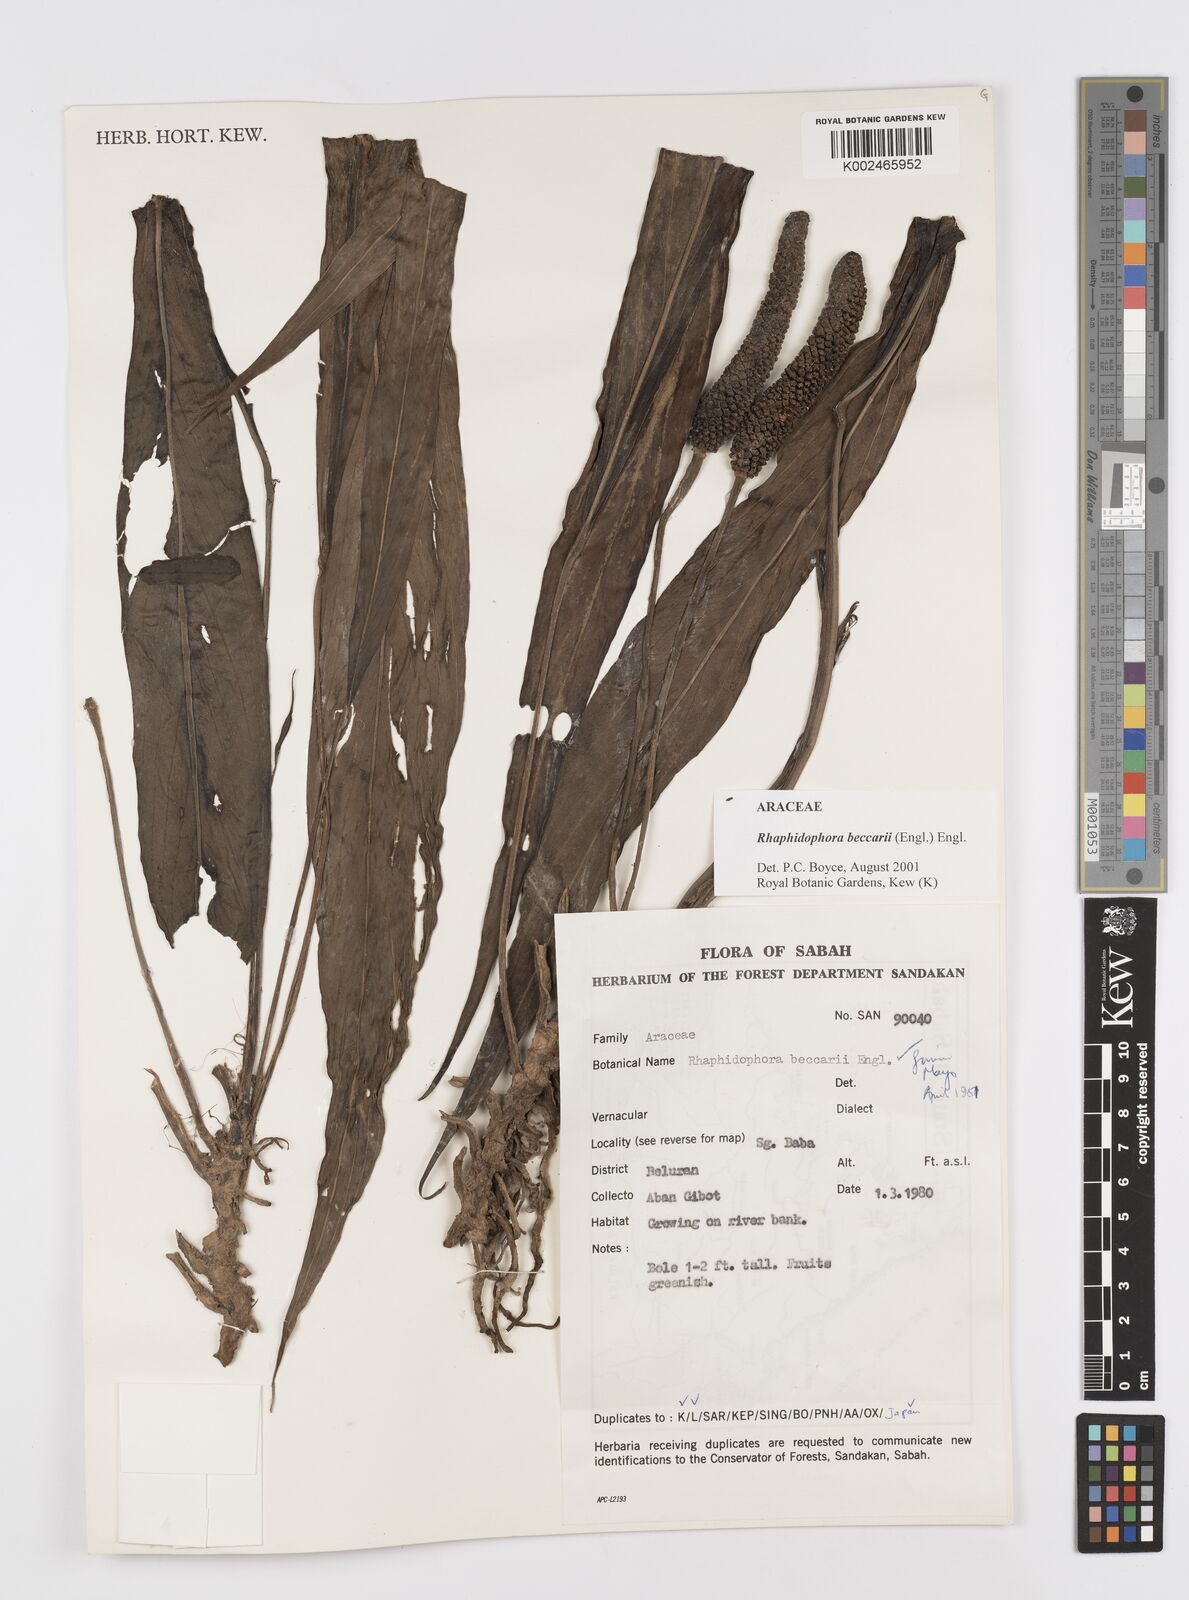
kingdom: Plantae
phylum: Tracheophyta
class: Liliopsida
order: Alismatales
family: Araceae
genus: Rhaphidophora
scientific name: Rhaphidophora beccarii
